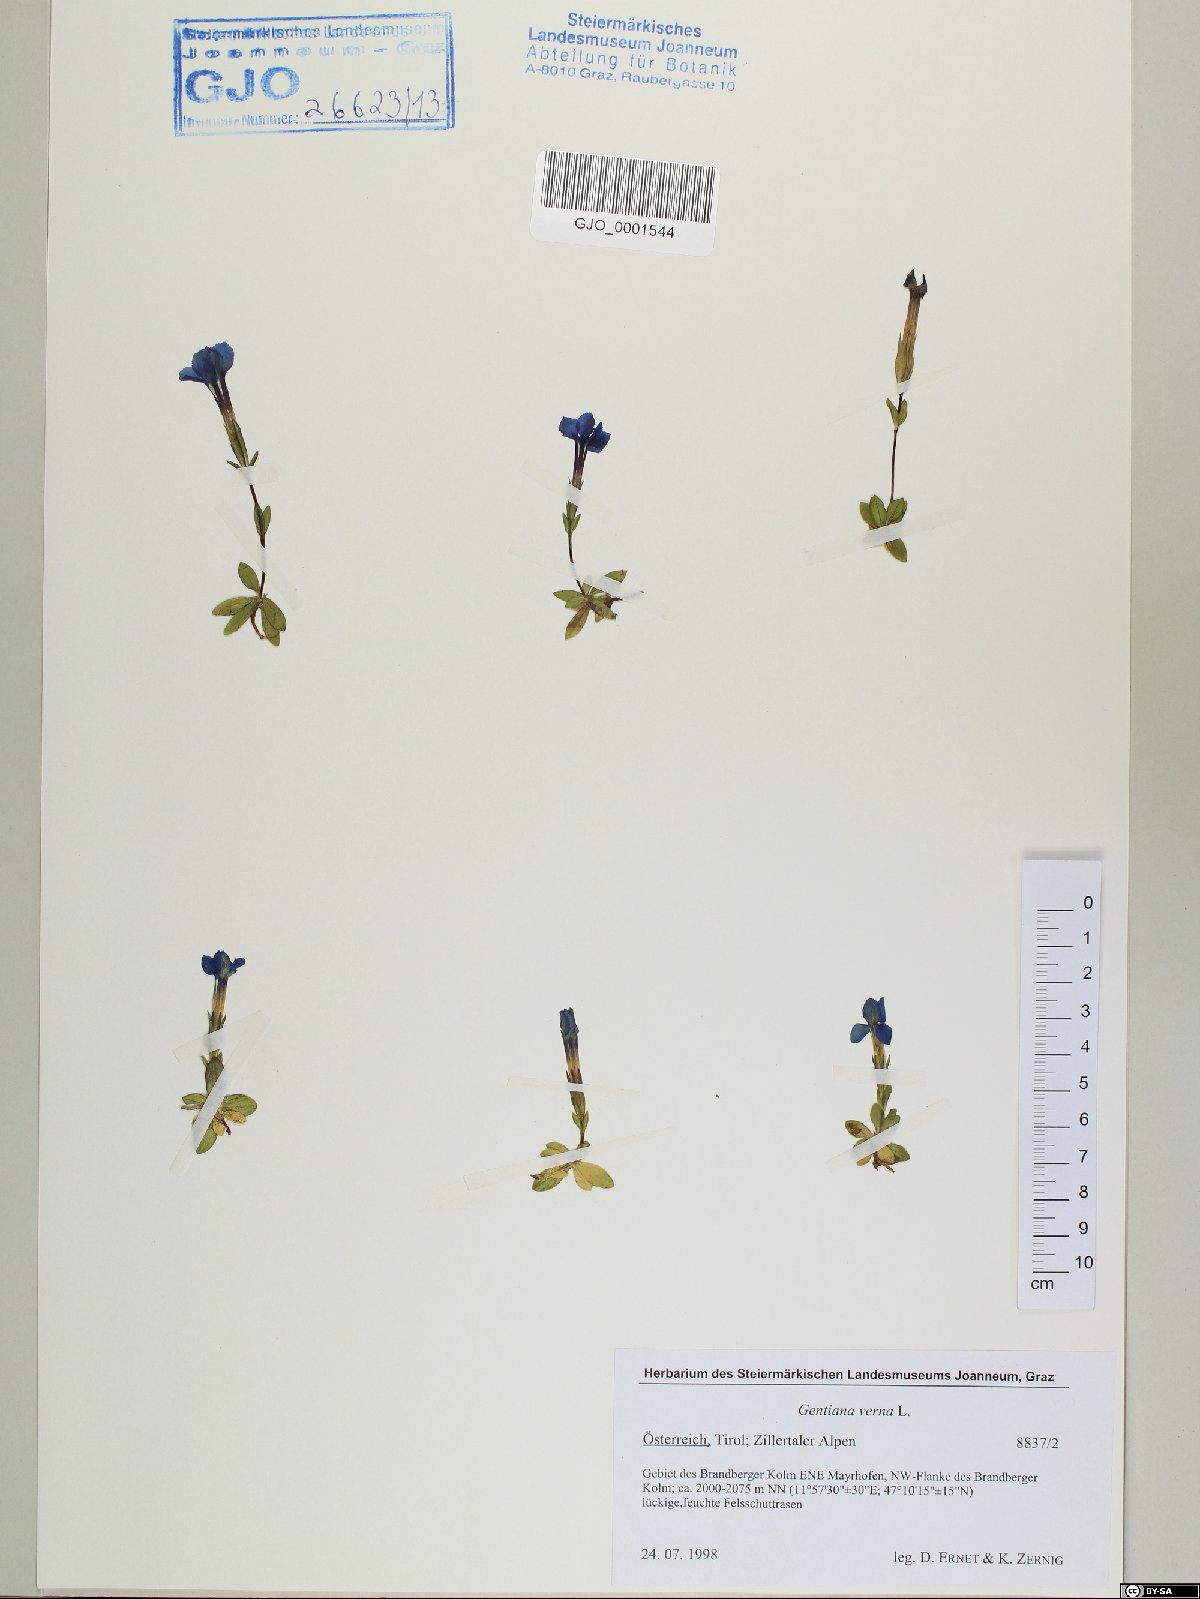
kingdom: Plantae
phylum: Tracheophyta
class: Magnoliopsida
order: Gentianales
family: Gentianaceae
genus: Gentiana
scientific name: Gentiana verna
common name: Spring gentian
